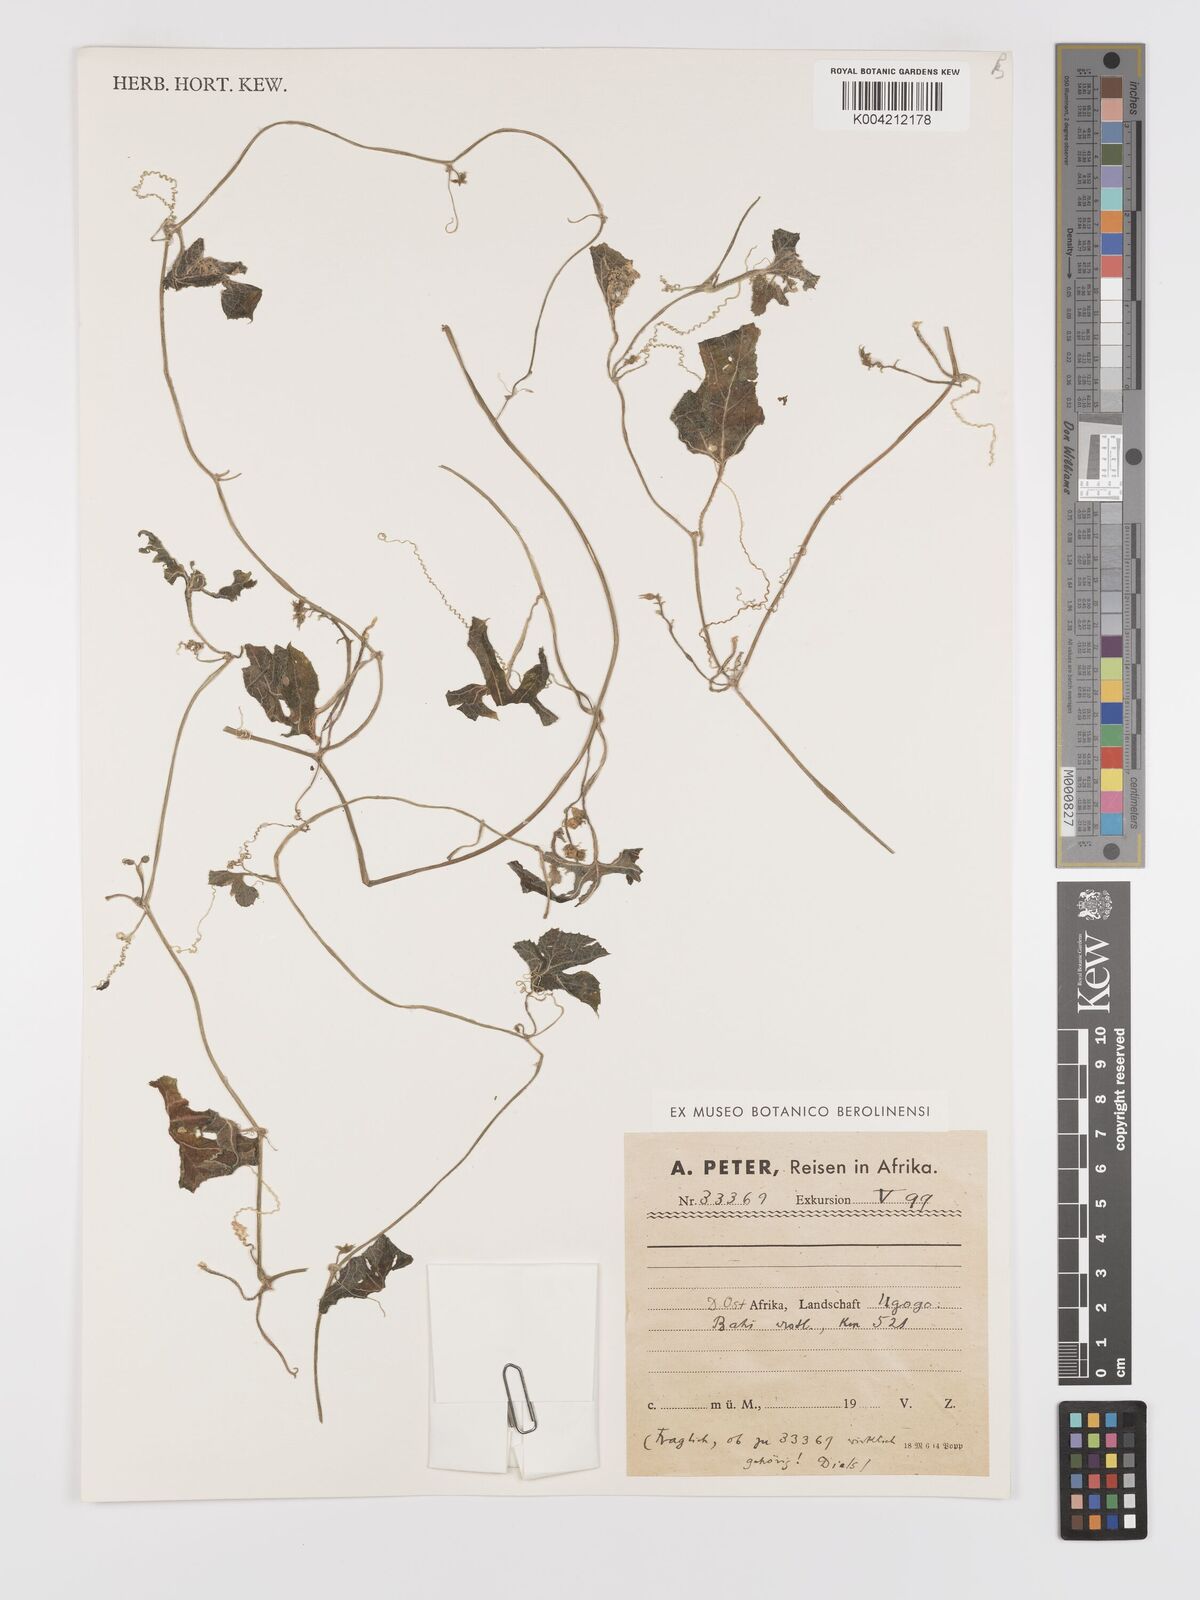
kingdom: Plantae
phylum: Tracheophyta
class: Magnoliopsida
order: Cucurbitales
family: Cucurbitaceae
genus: Kedrostis
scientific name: Kedrostis leloja
